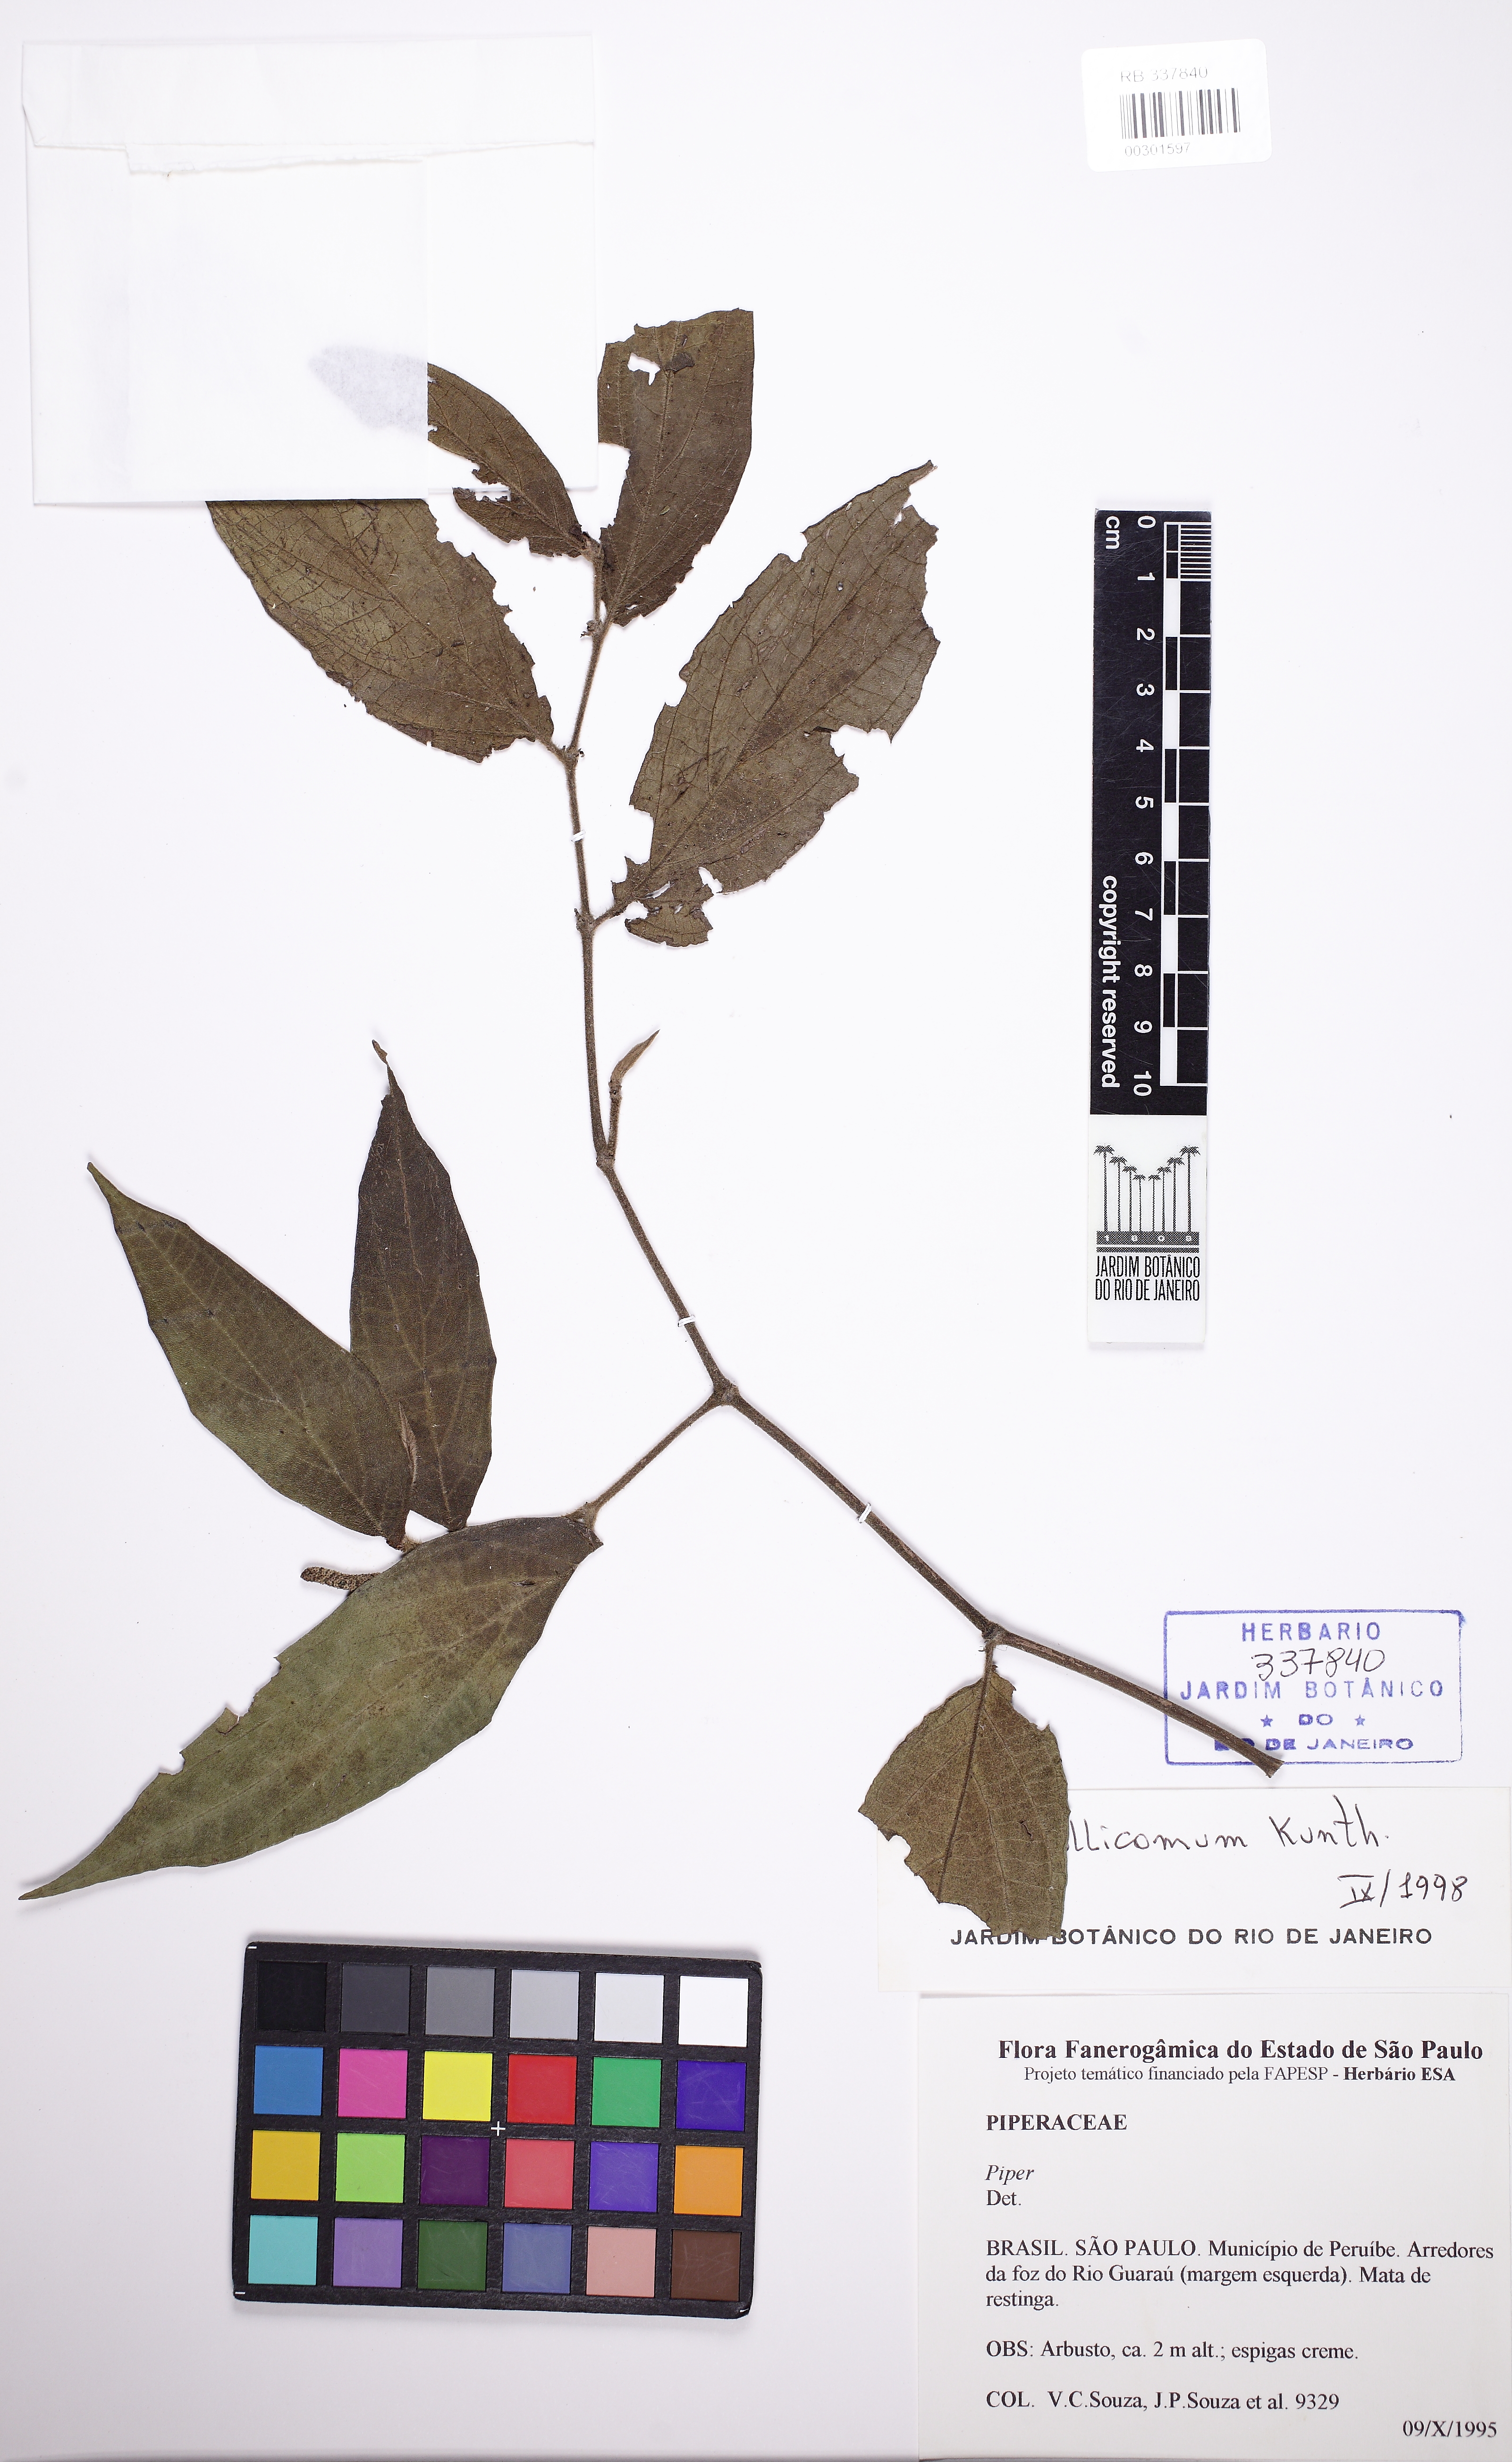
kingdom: Plantae
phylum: Tracheophyta
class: Magnoliopsida
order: Piperales
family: Piperaceae
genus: Piper
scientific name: Piper mollicomum
